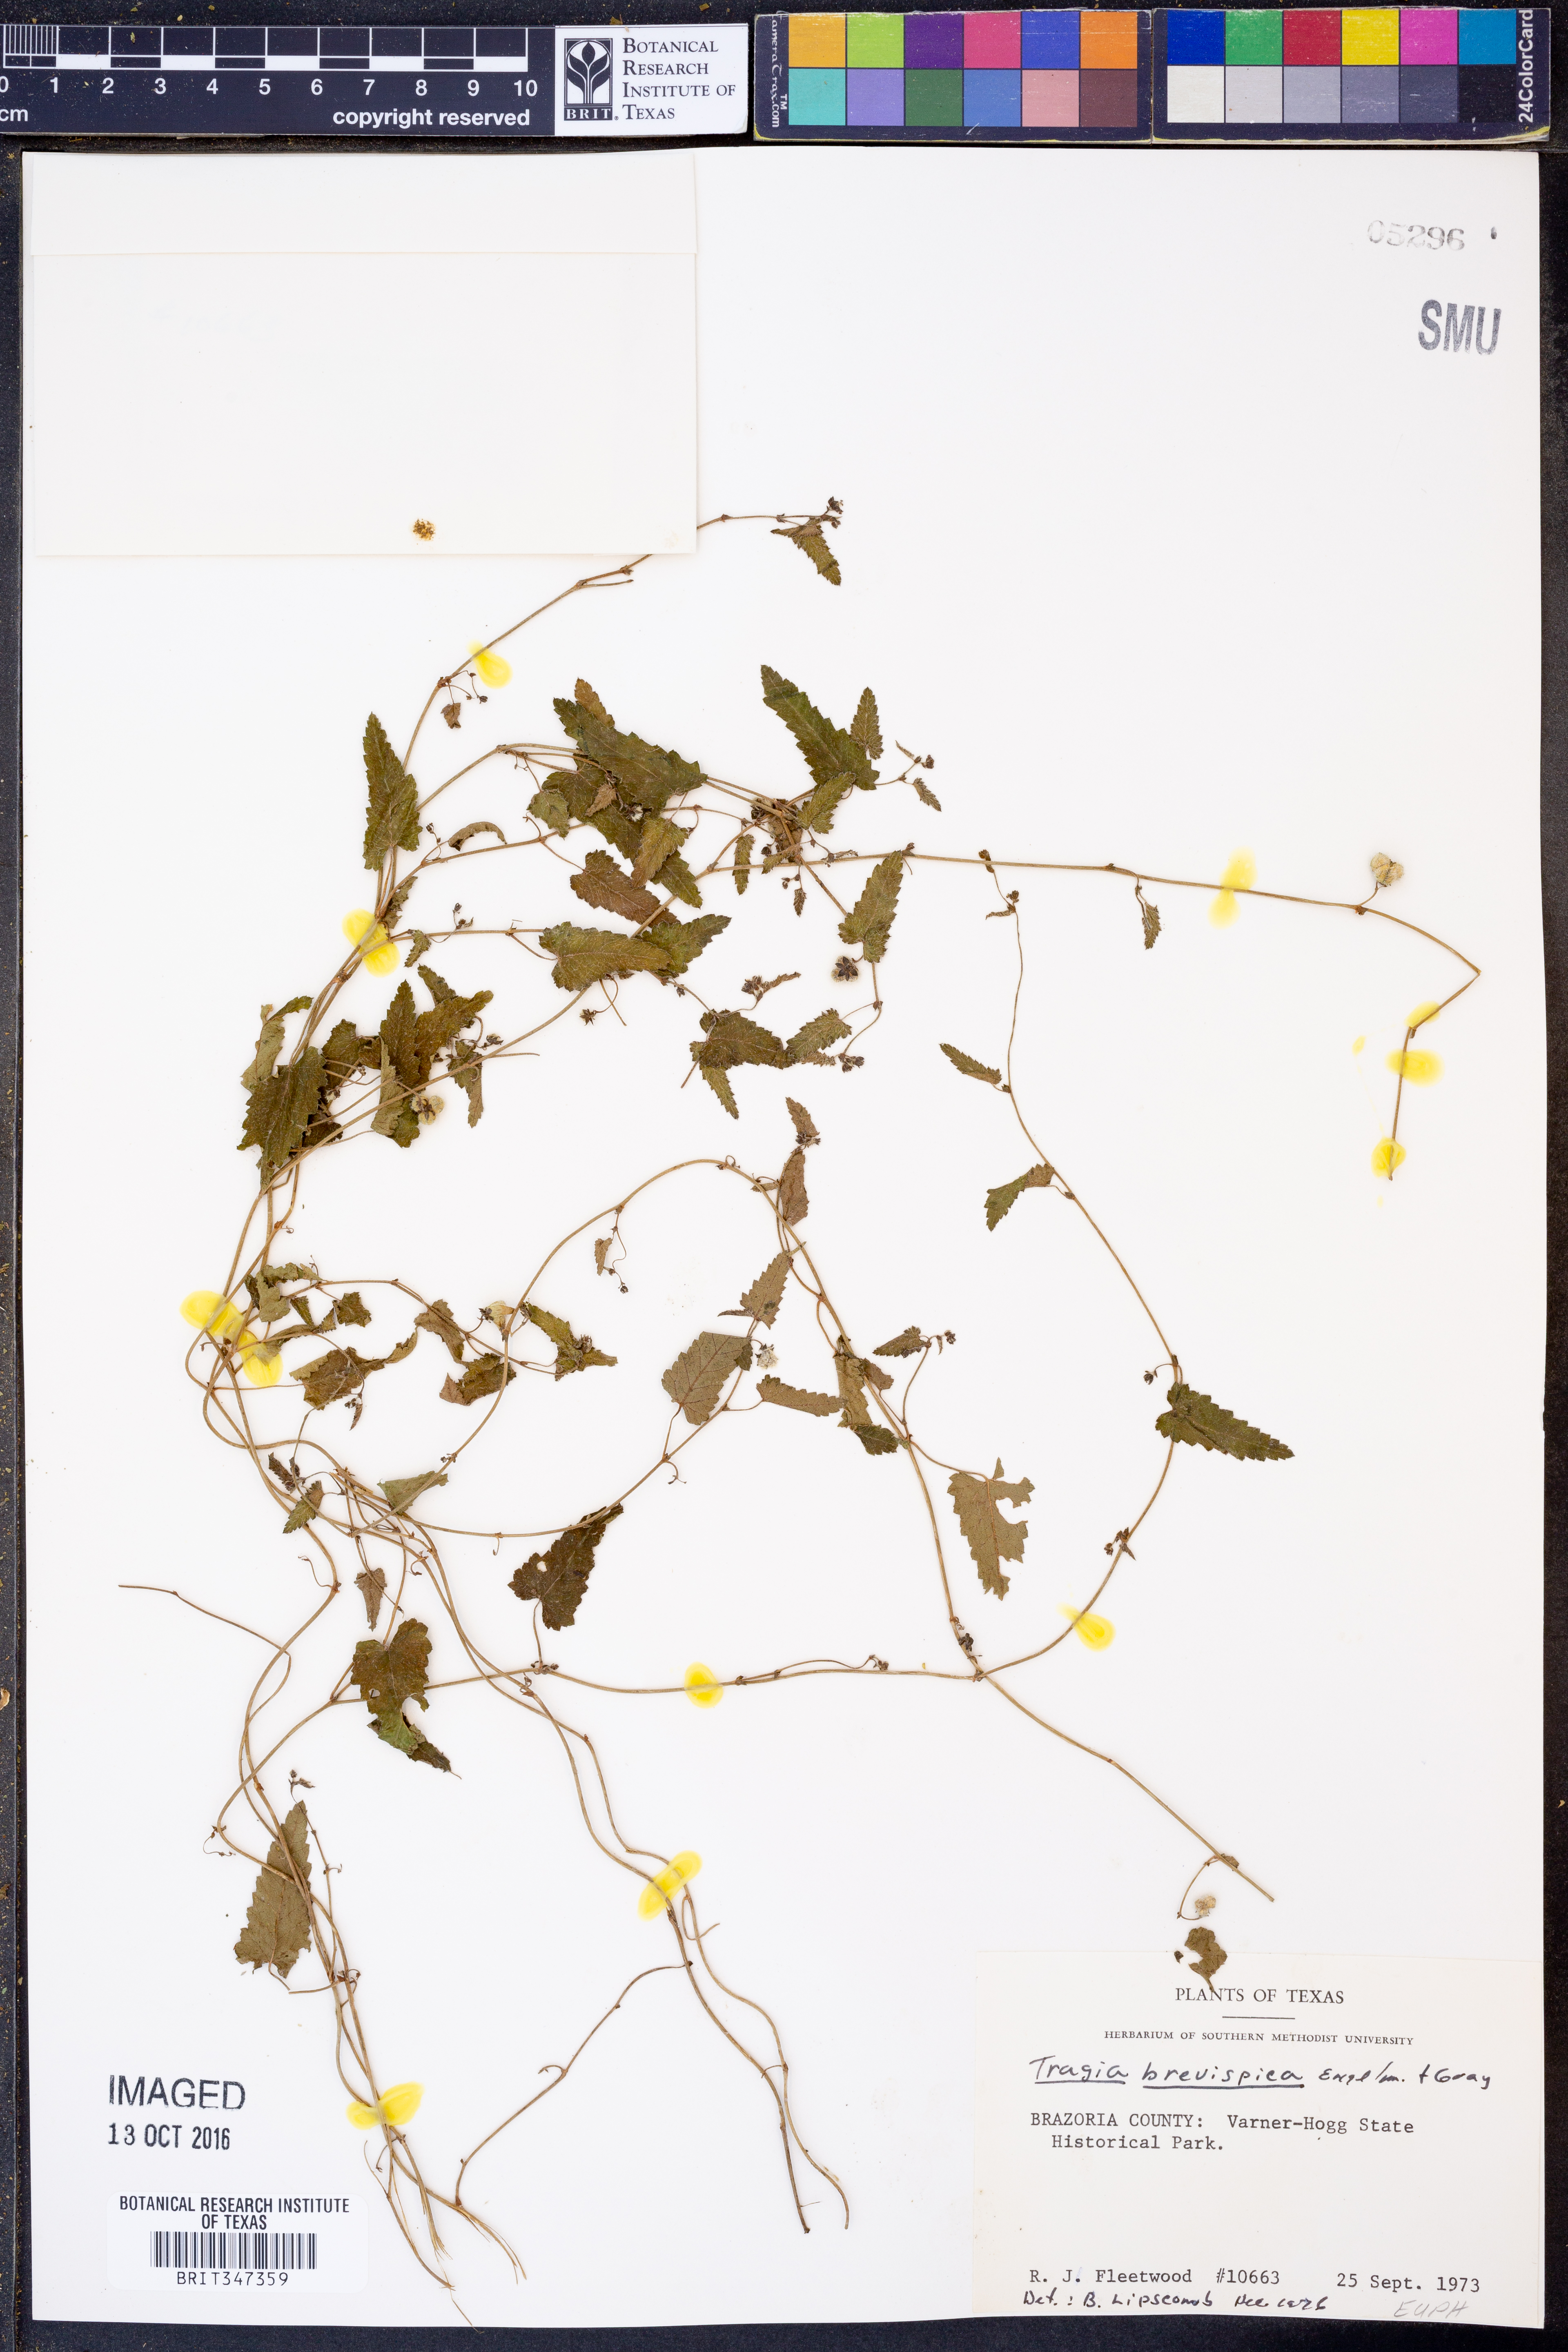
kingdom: Plantae
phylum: Tracheophyta
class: Magnoliopsida
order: Malpighiales
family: Euphorbiaceae
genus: Tragia
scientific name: Tragia brevispica
